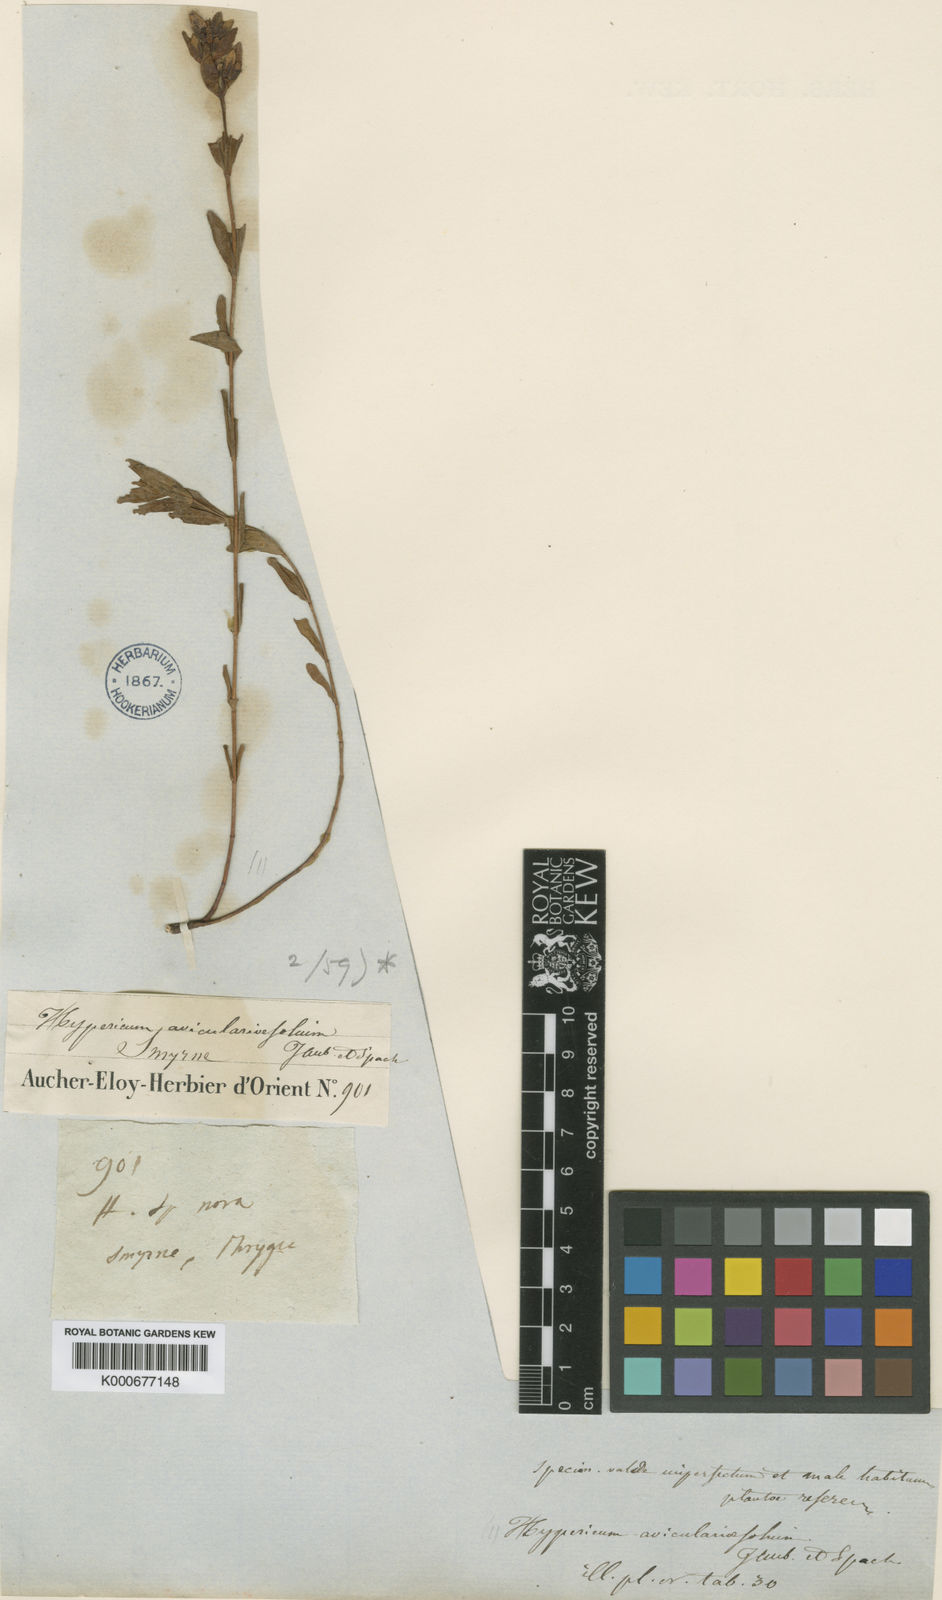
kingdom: Plantae
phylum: Tracheophyta
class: Magnoliopsida
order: Malpighiales
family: Hypericaceae
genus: Hypericum
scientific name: Hypericum aviculariifolium
